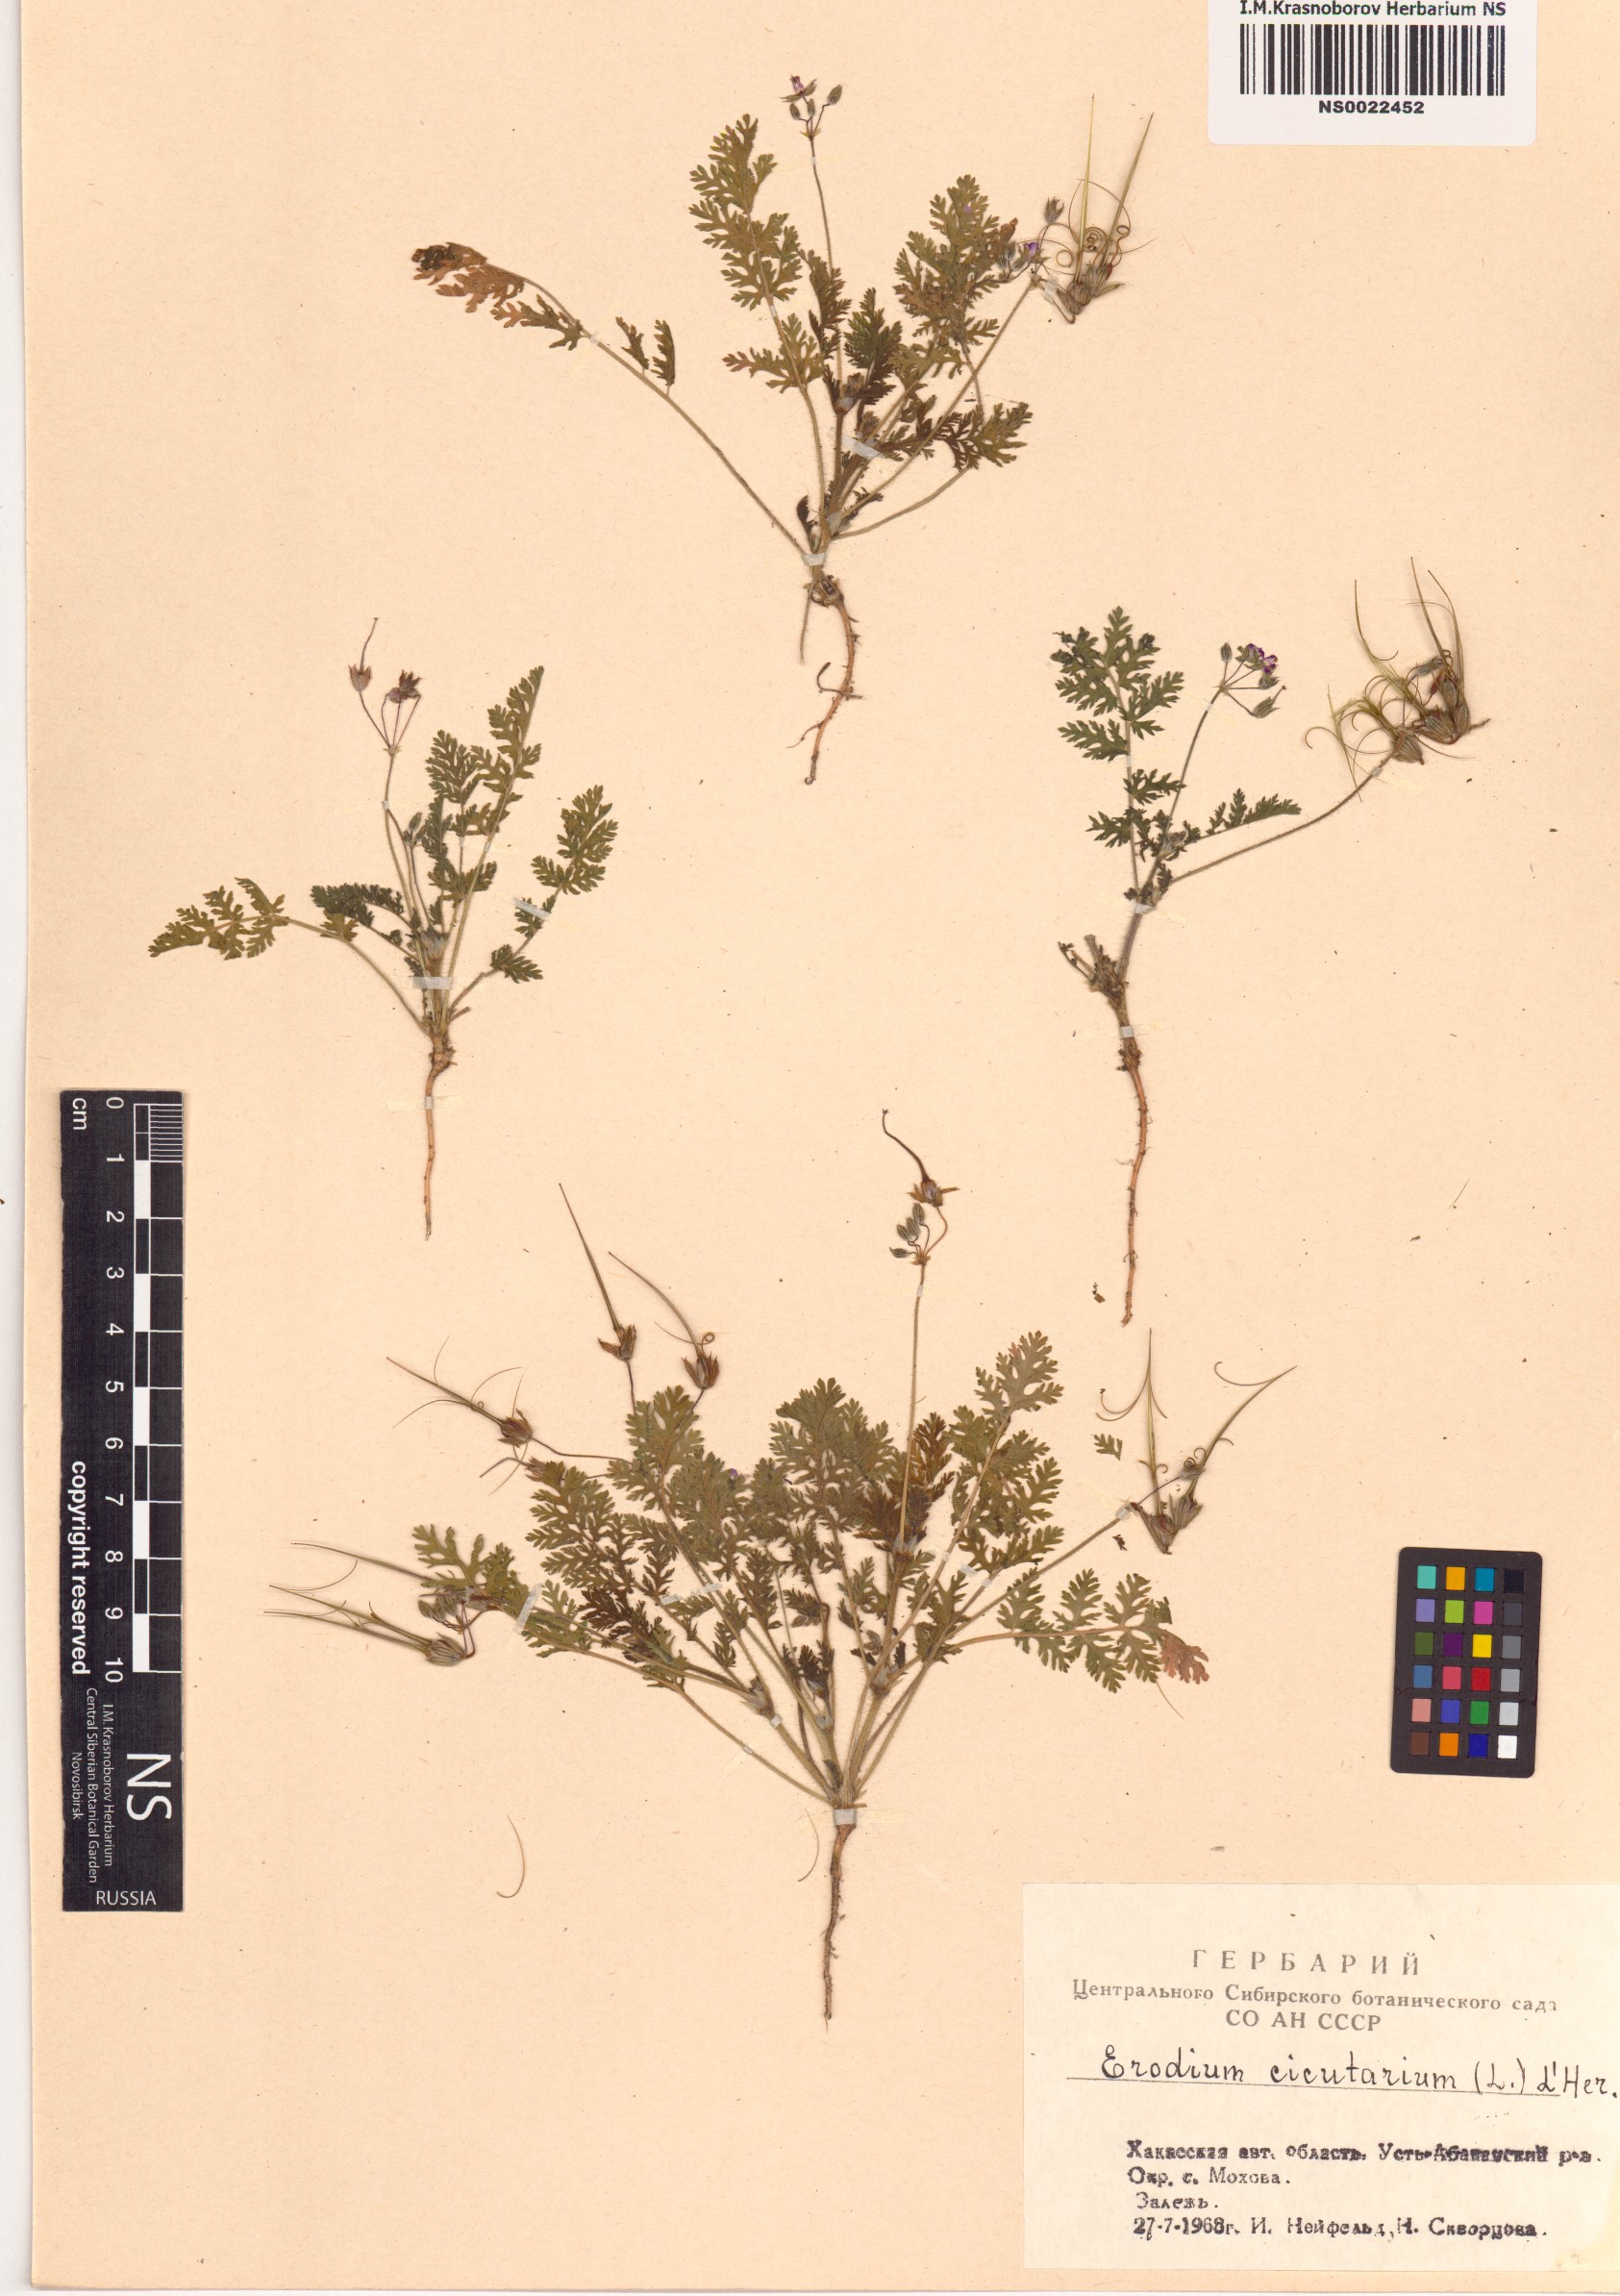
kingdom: Plantae
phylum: Tracheophyta
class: Magnoliopsida
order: Geraniales
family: Geraniaceae
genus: Erodium
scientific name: Erodium cicutarium
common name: Common stork's-bill
